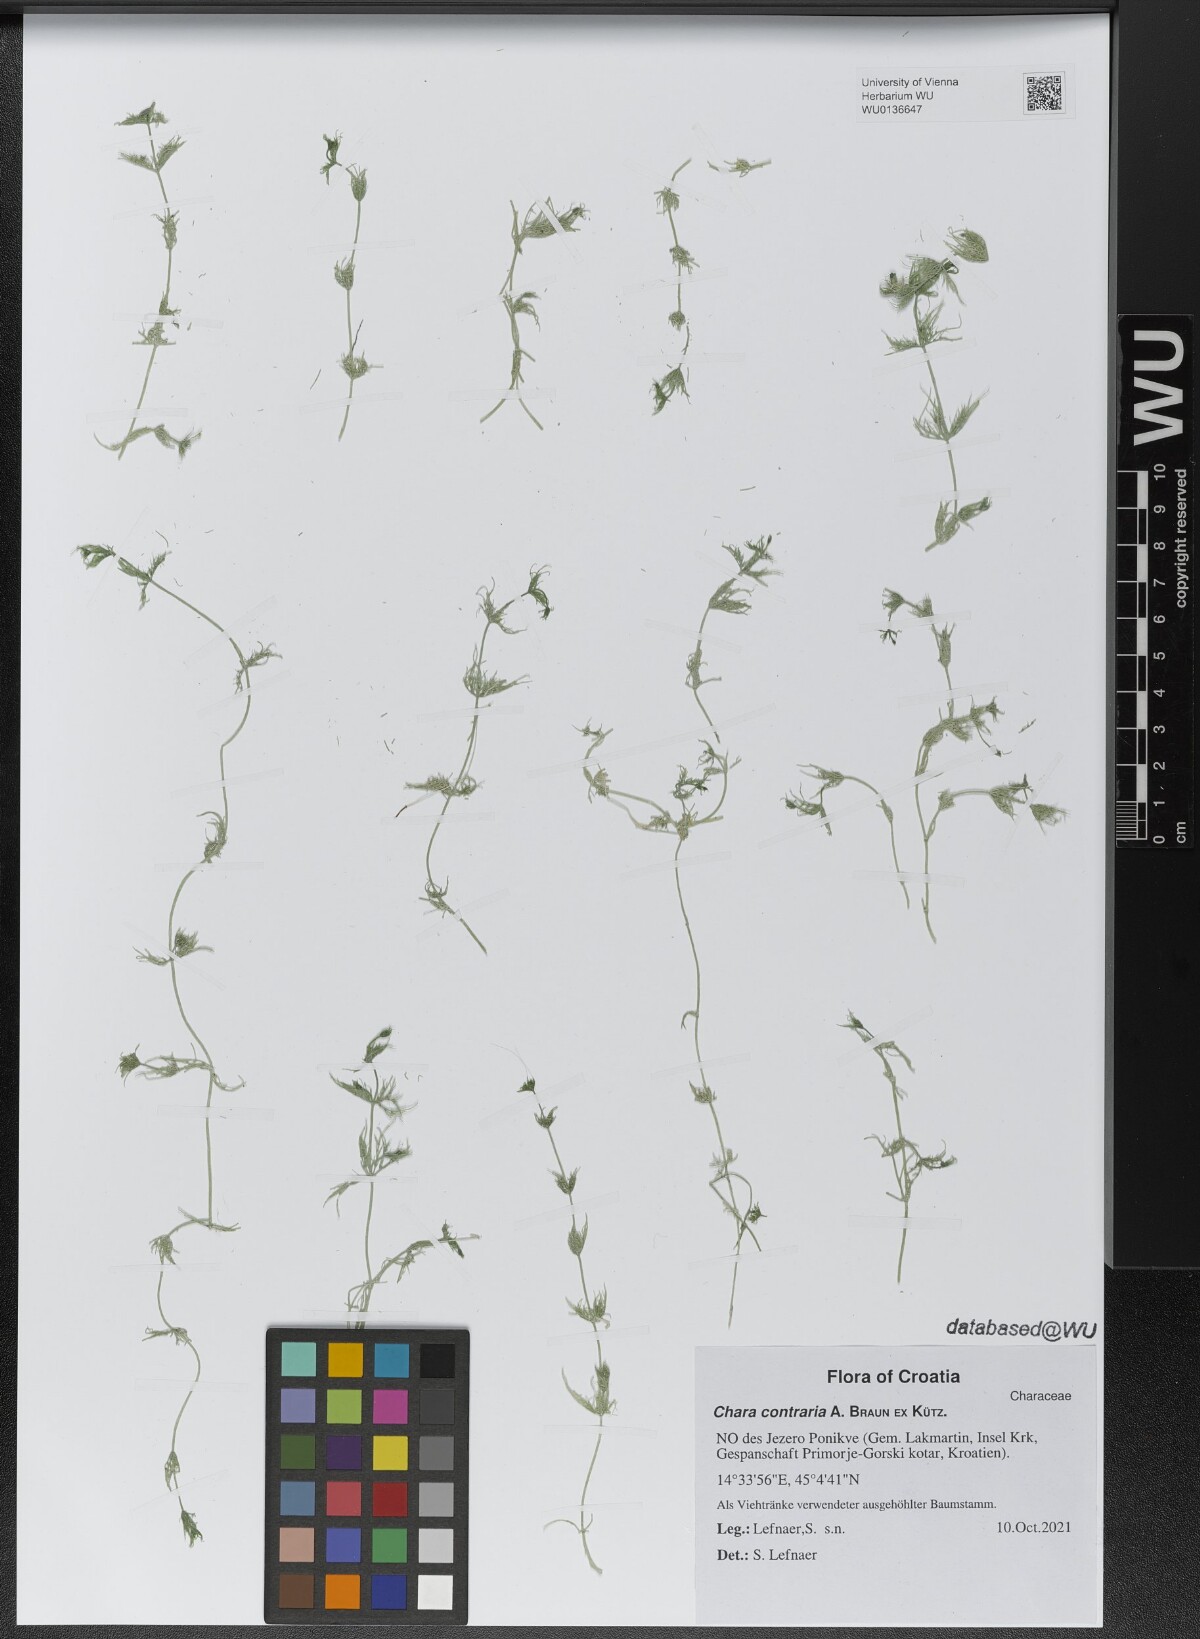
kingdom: Plantae
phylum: Charophyta
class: Charophyceae
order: Charales
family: Characeae
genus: Chara
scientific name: Chara contraria
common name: Opposite stonewort
